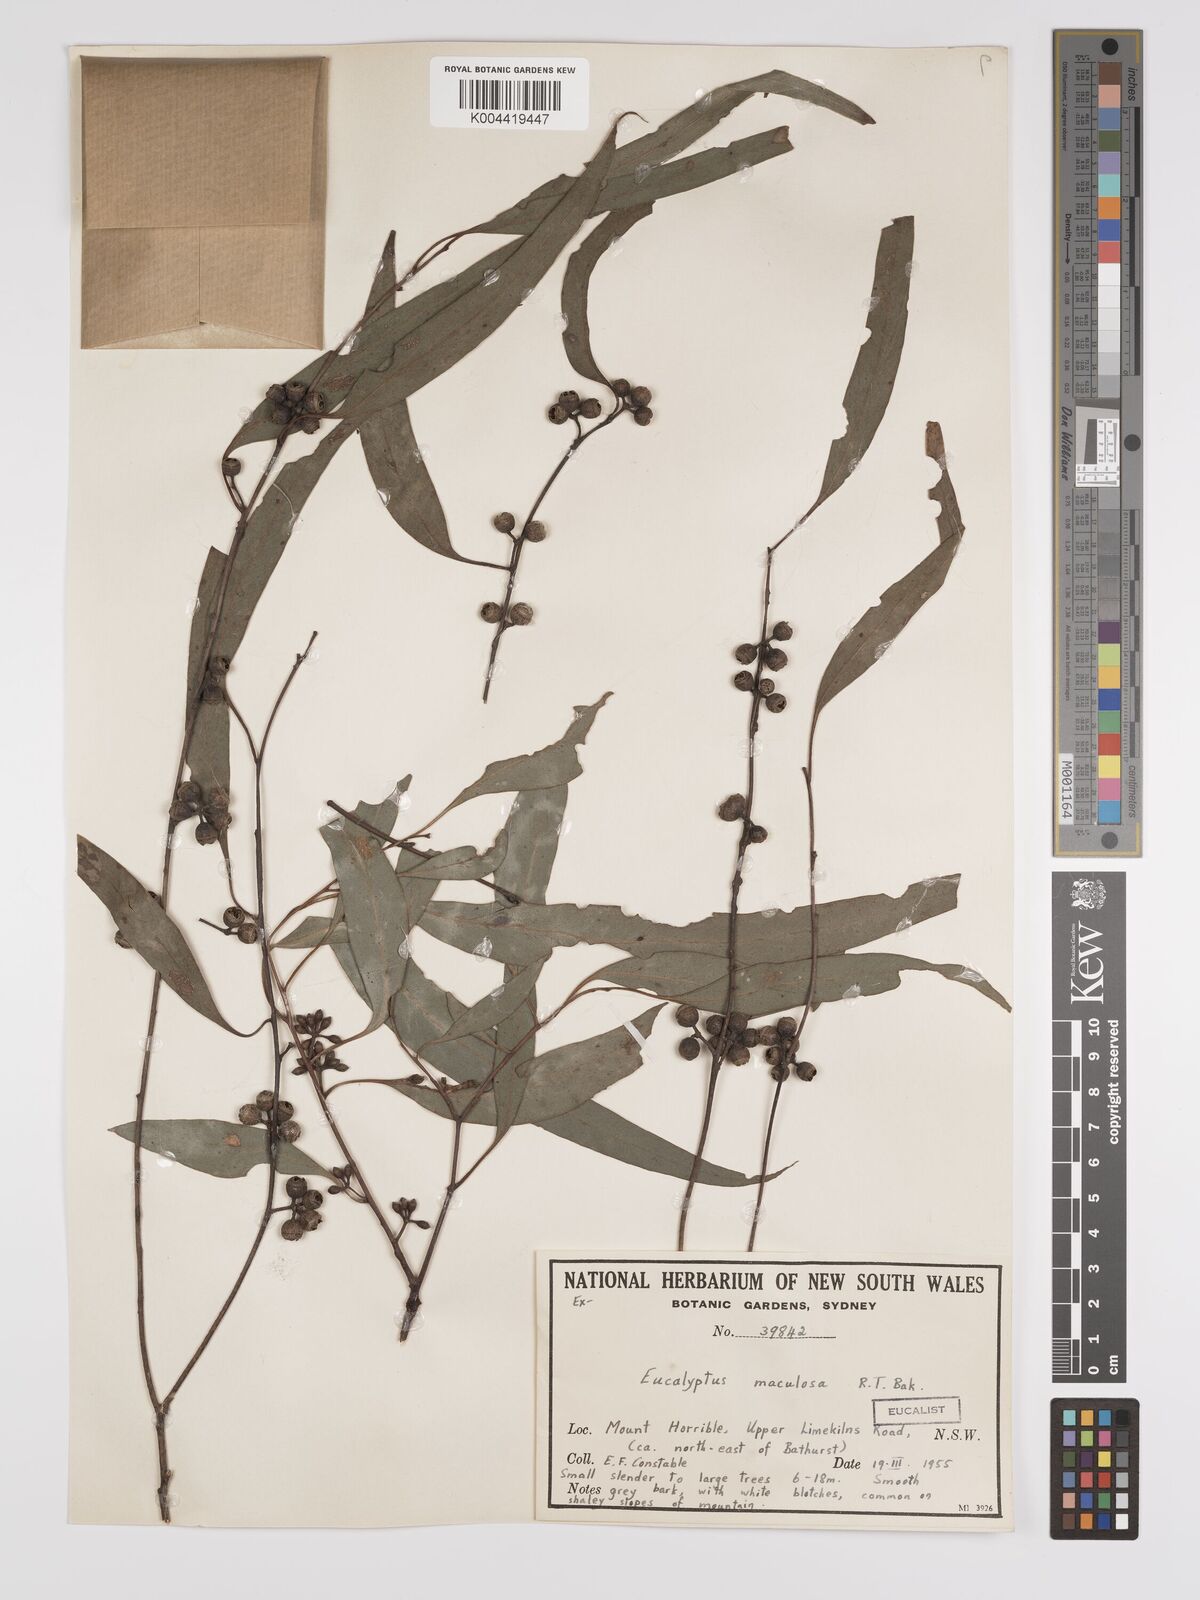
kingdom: Plantae
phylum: Tracheophyta
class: Magnoliopsida
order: Myrtales
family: Myrtaceae
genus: Eucalyptus
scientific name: Eucalyptus mannifera
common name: Manna gum
